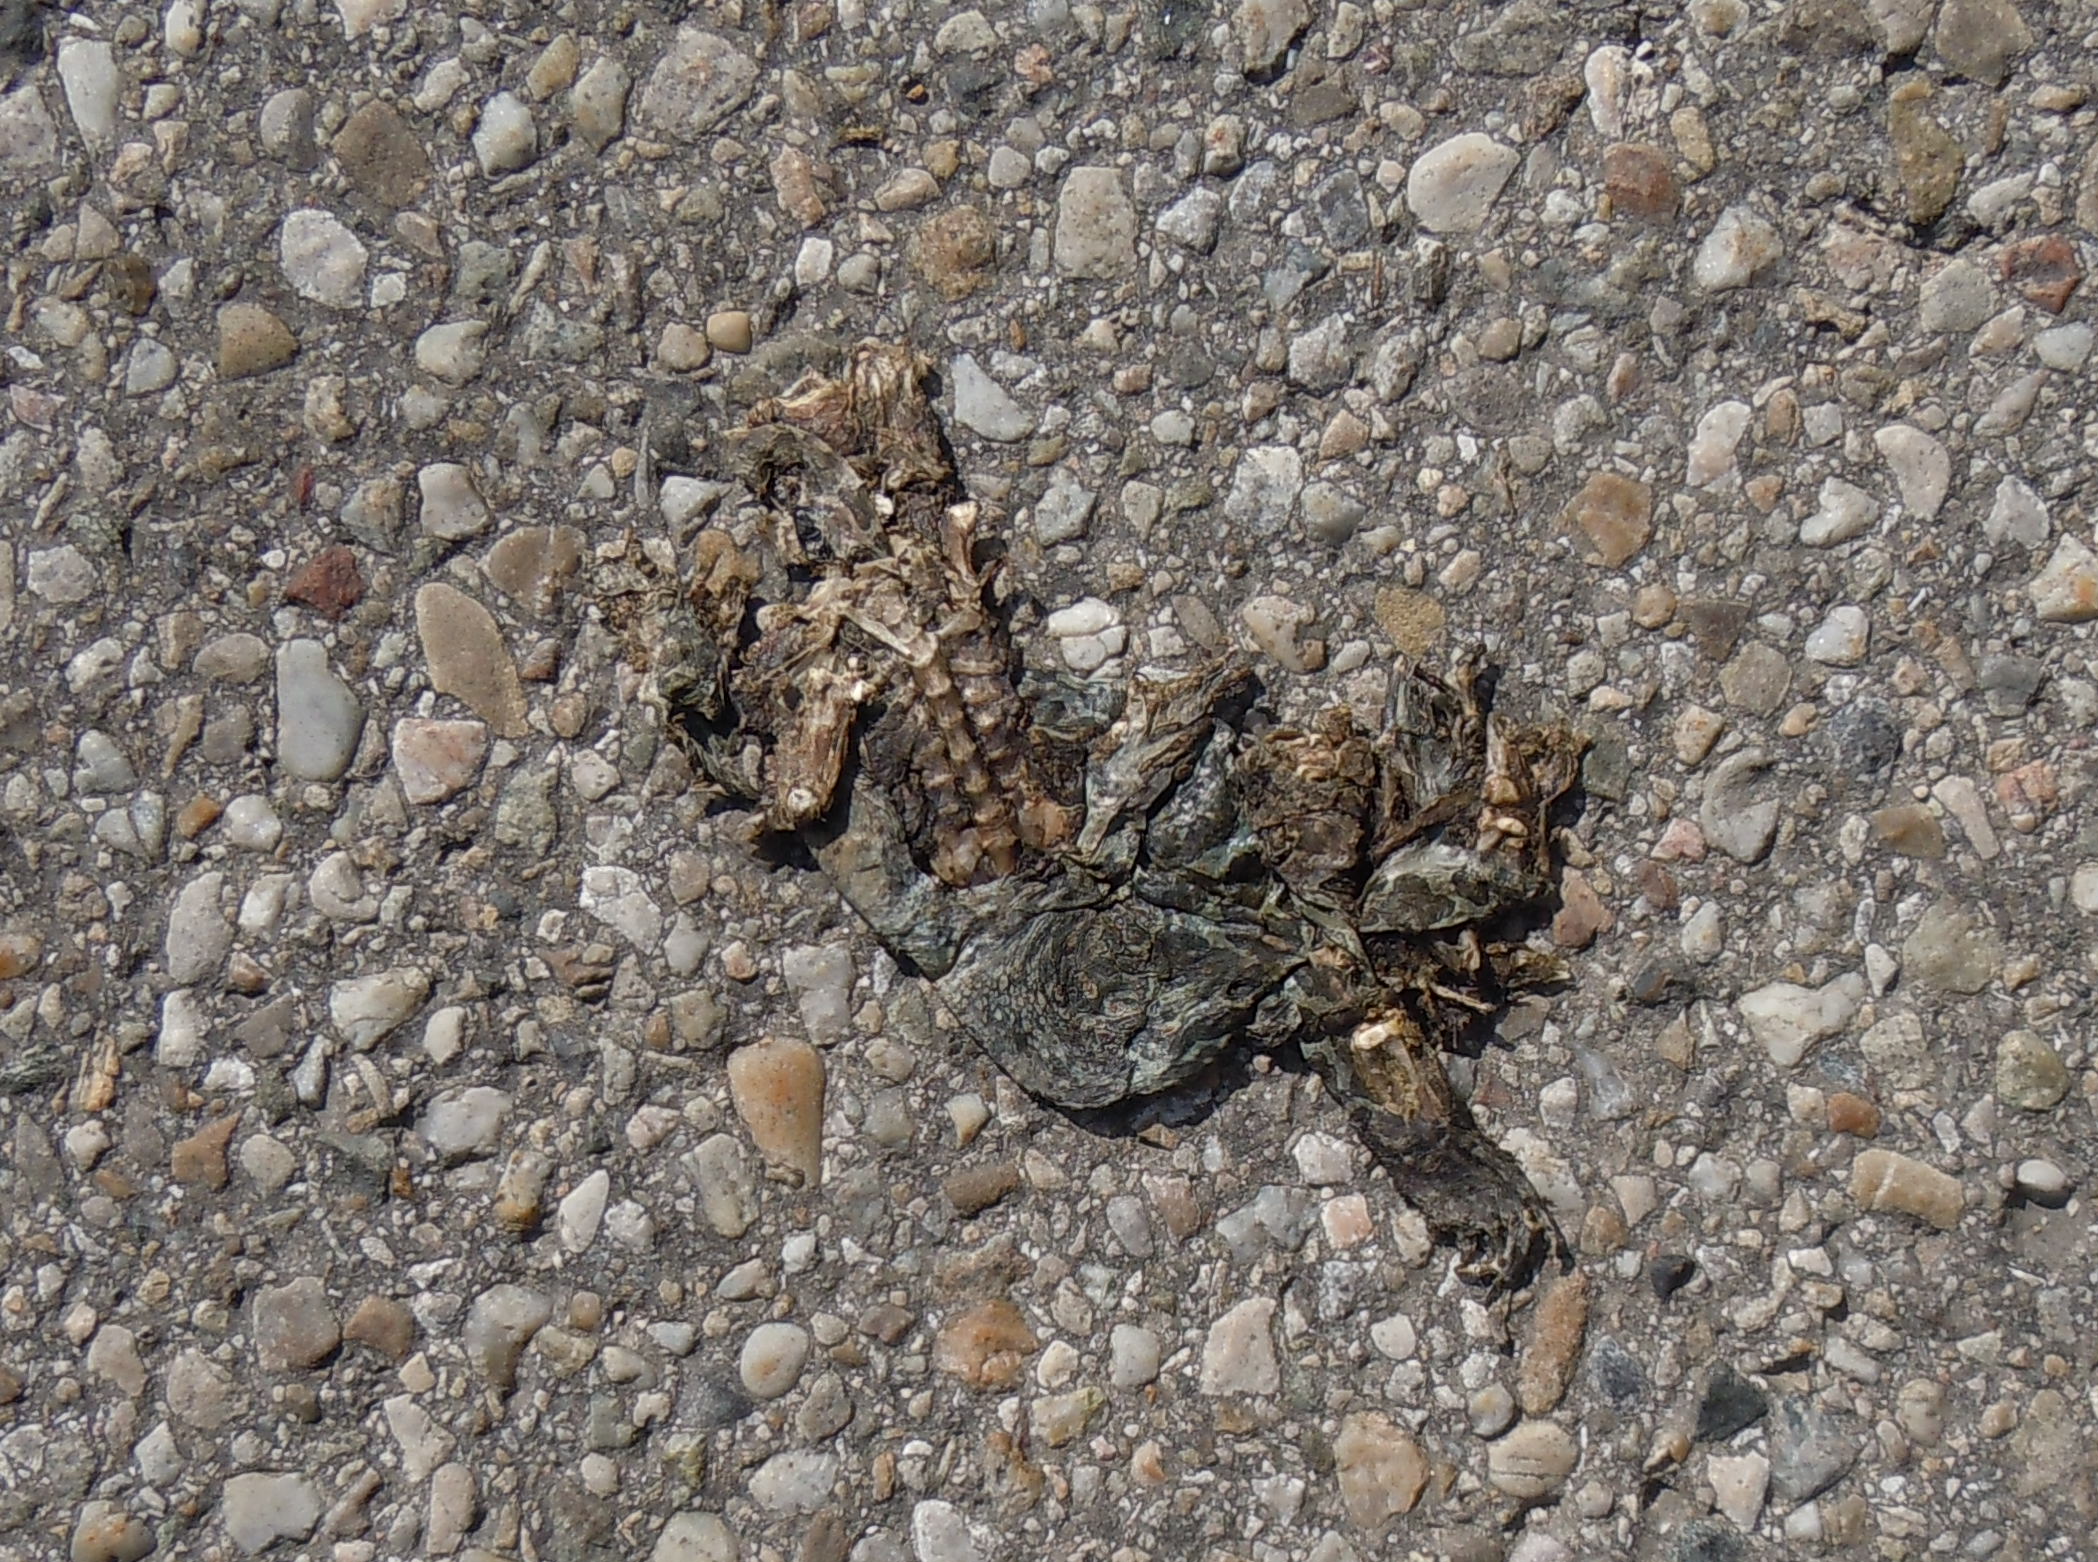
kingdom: Animalia
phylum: Chordata
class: Amphibia
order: Anura
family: Bufonidae
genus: Bufotes
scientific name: Bufotes viridis
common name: European green toad
